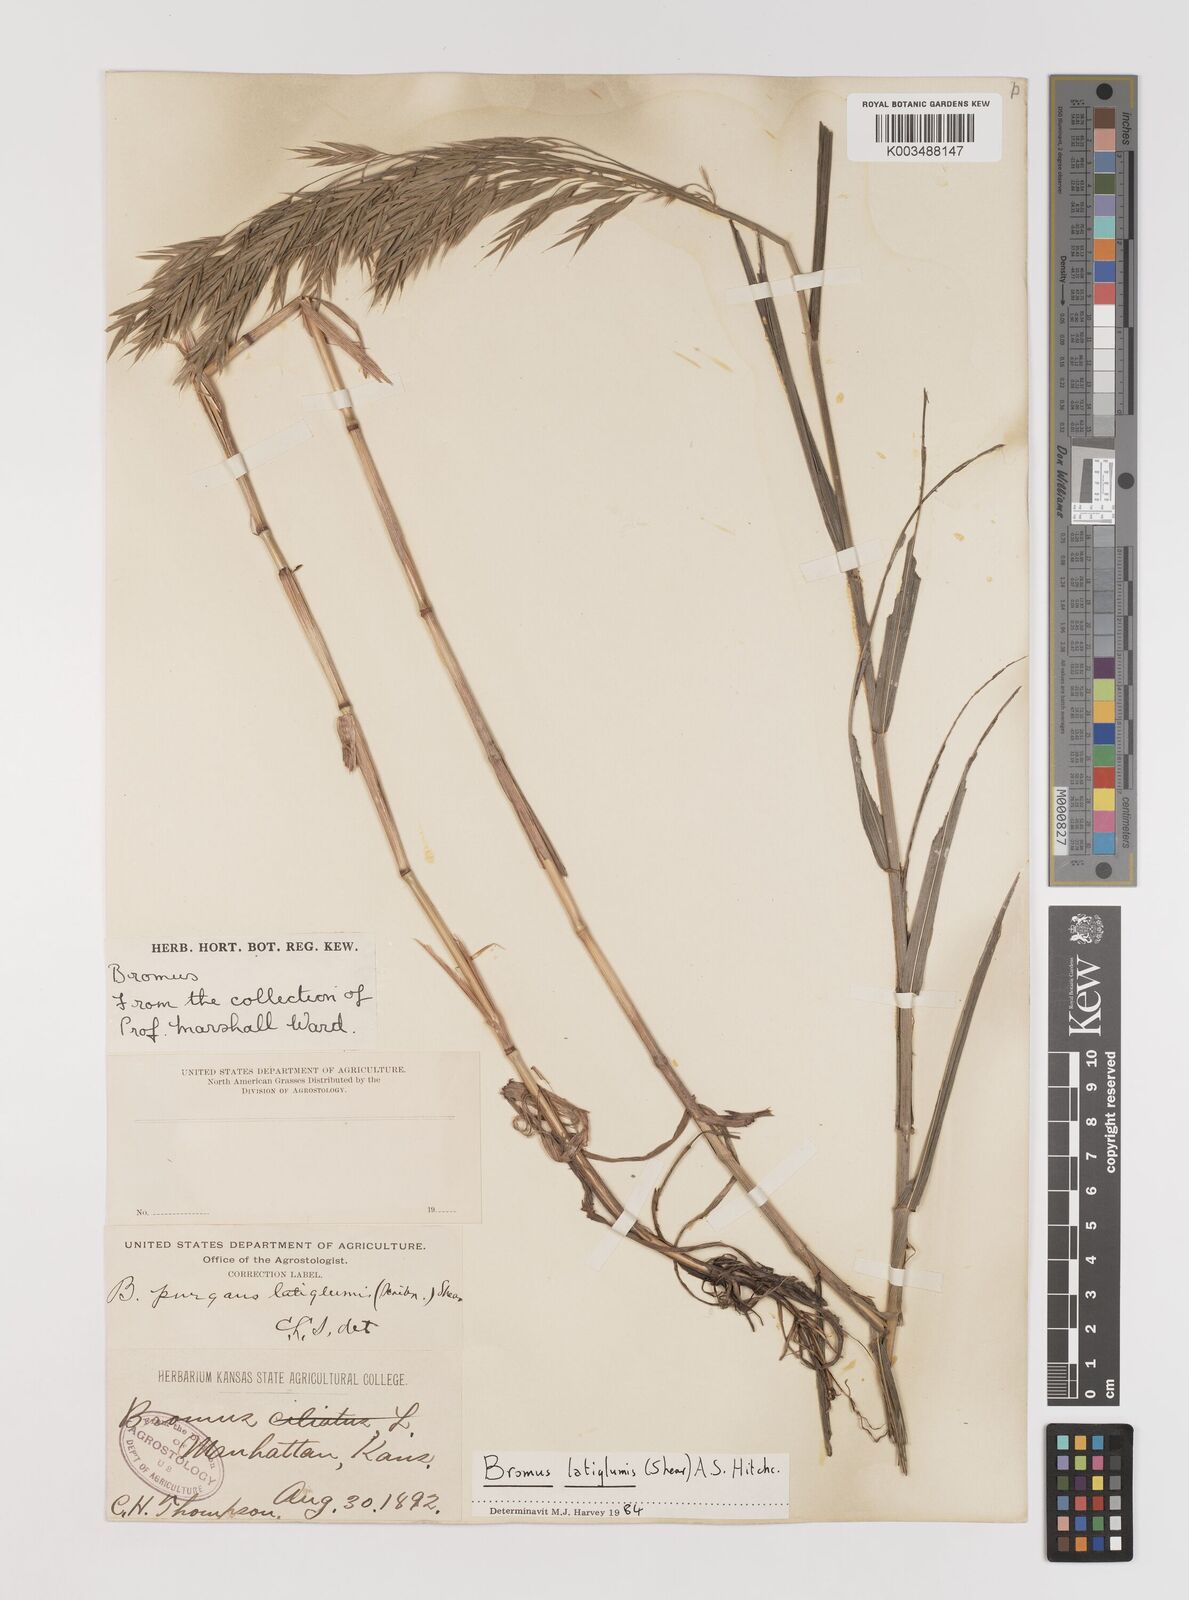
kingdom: Plantae
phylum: Tracheophyta
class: Liliopsida
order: Poales
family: Poaceae
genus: Bromus
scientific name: Bromus latiglumis
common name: Broad-glumed brome
